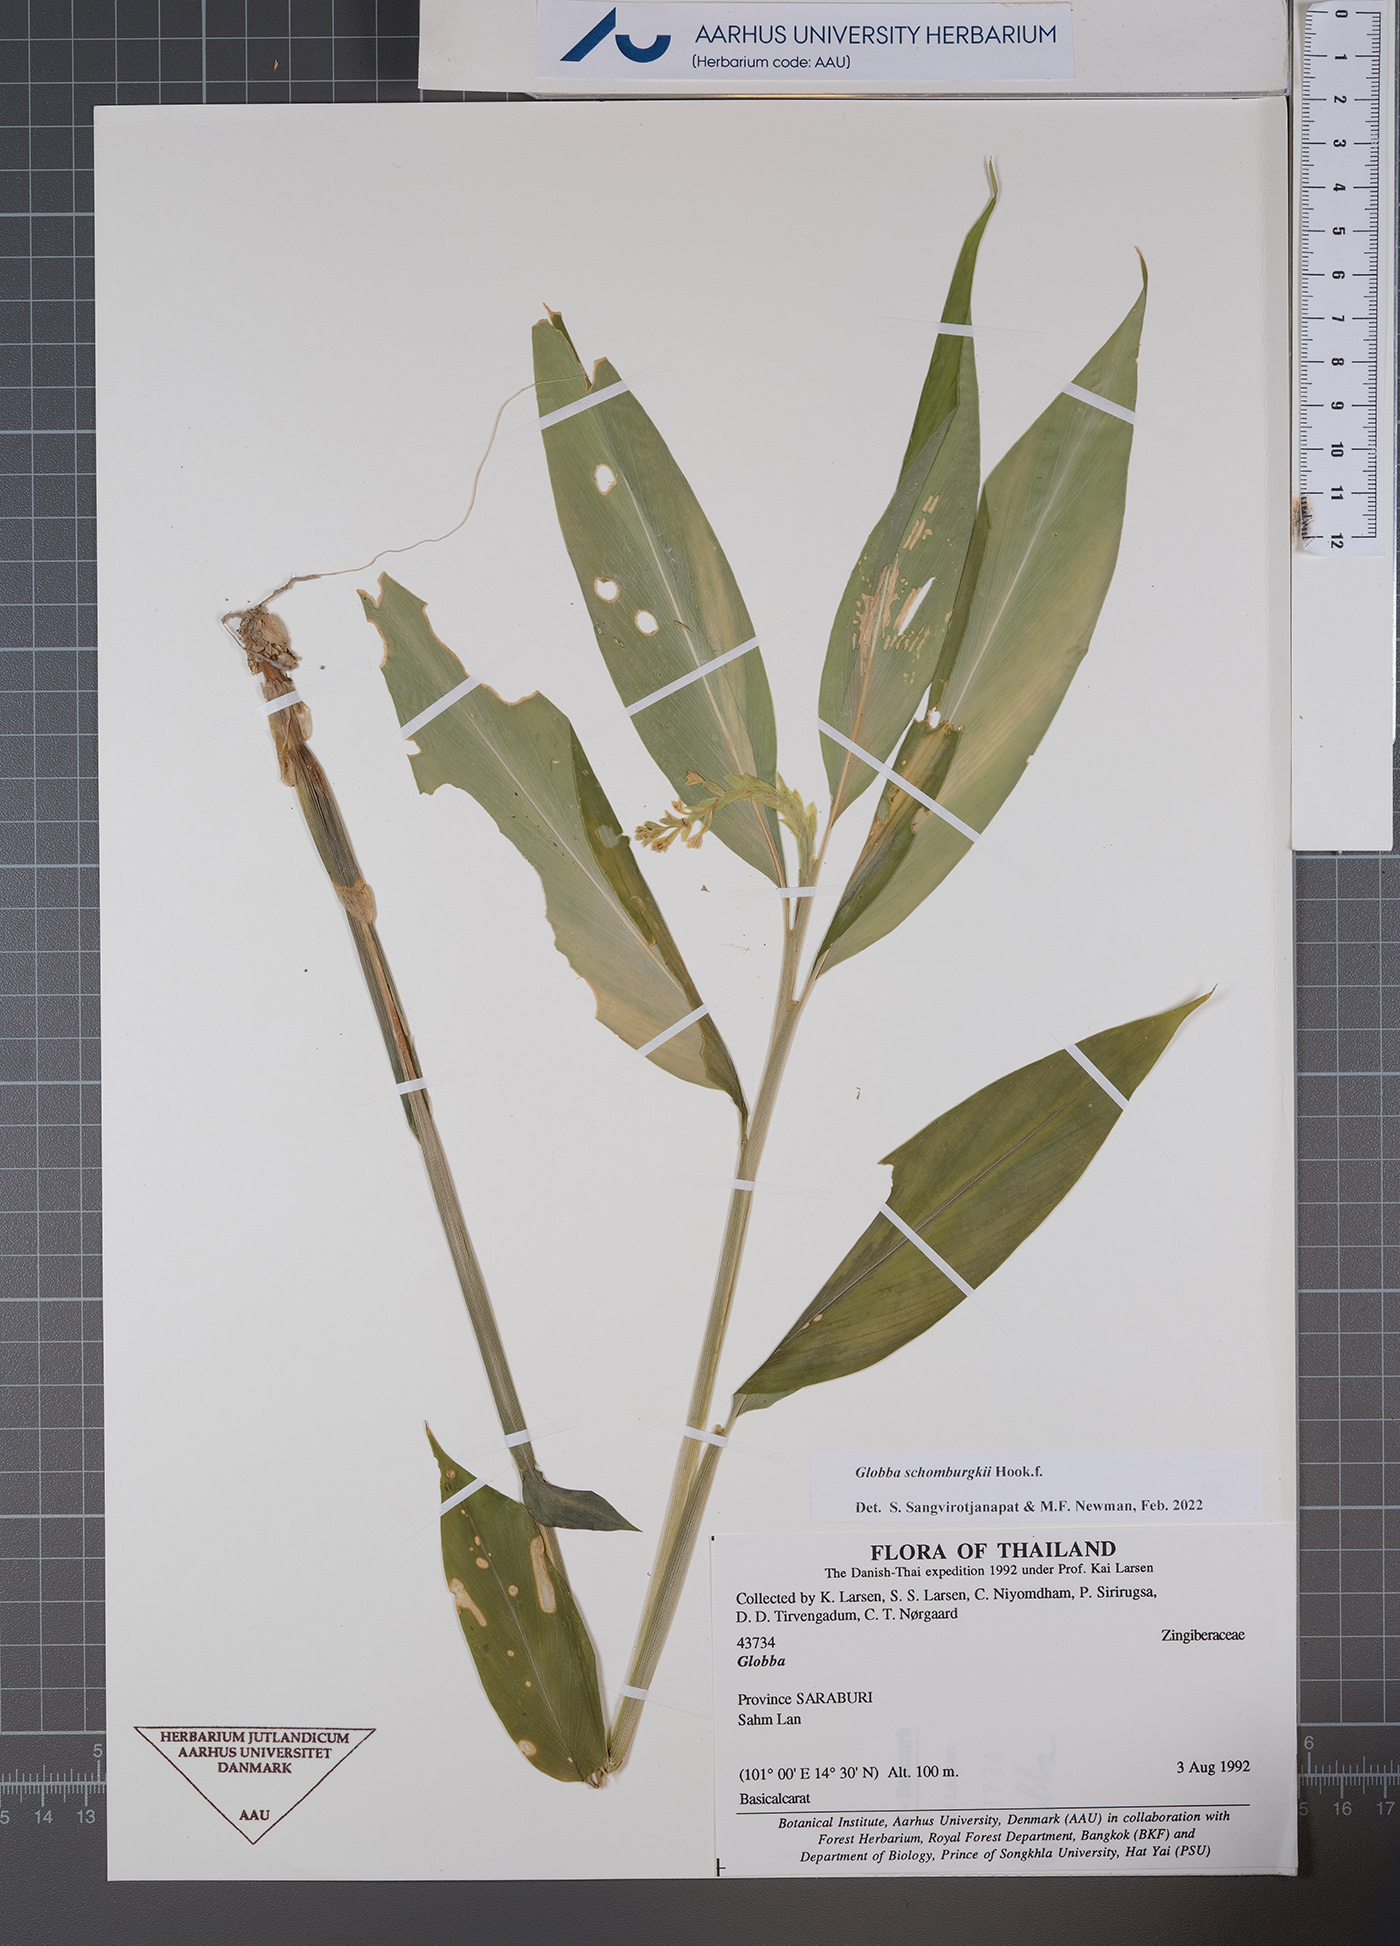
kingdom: Plantae
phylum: Tracheophyta
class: Liliopsida
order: Zingiberales
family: Zingiberaceae
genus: Globba
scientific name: Globba schomburgkii
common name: Dancing girl ginger
